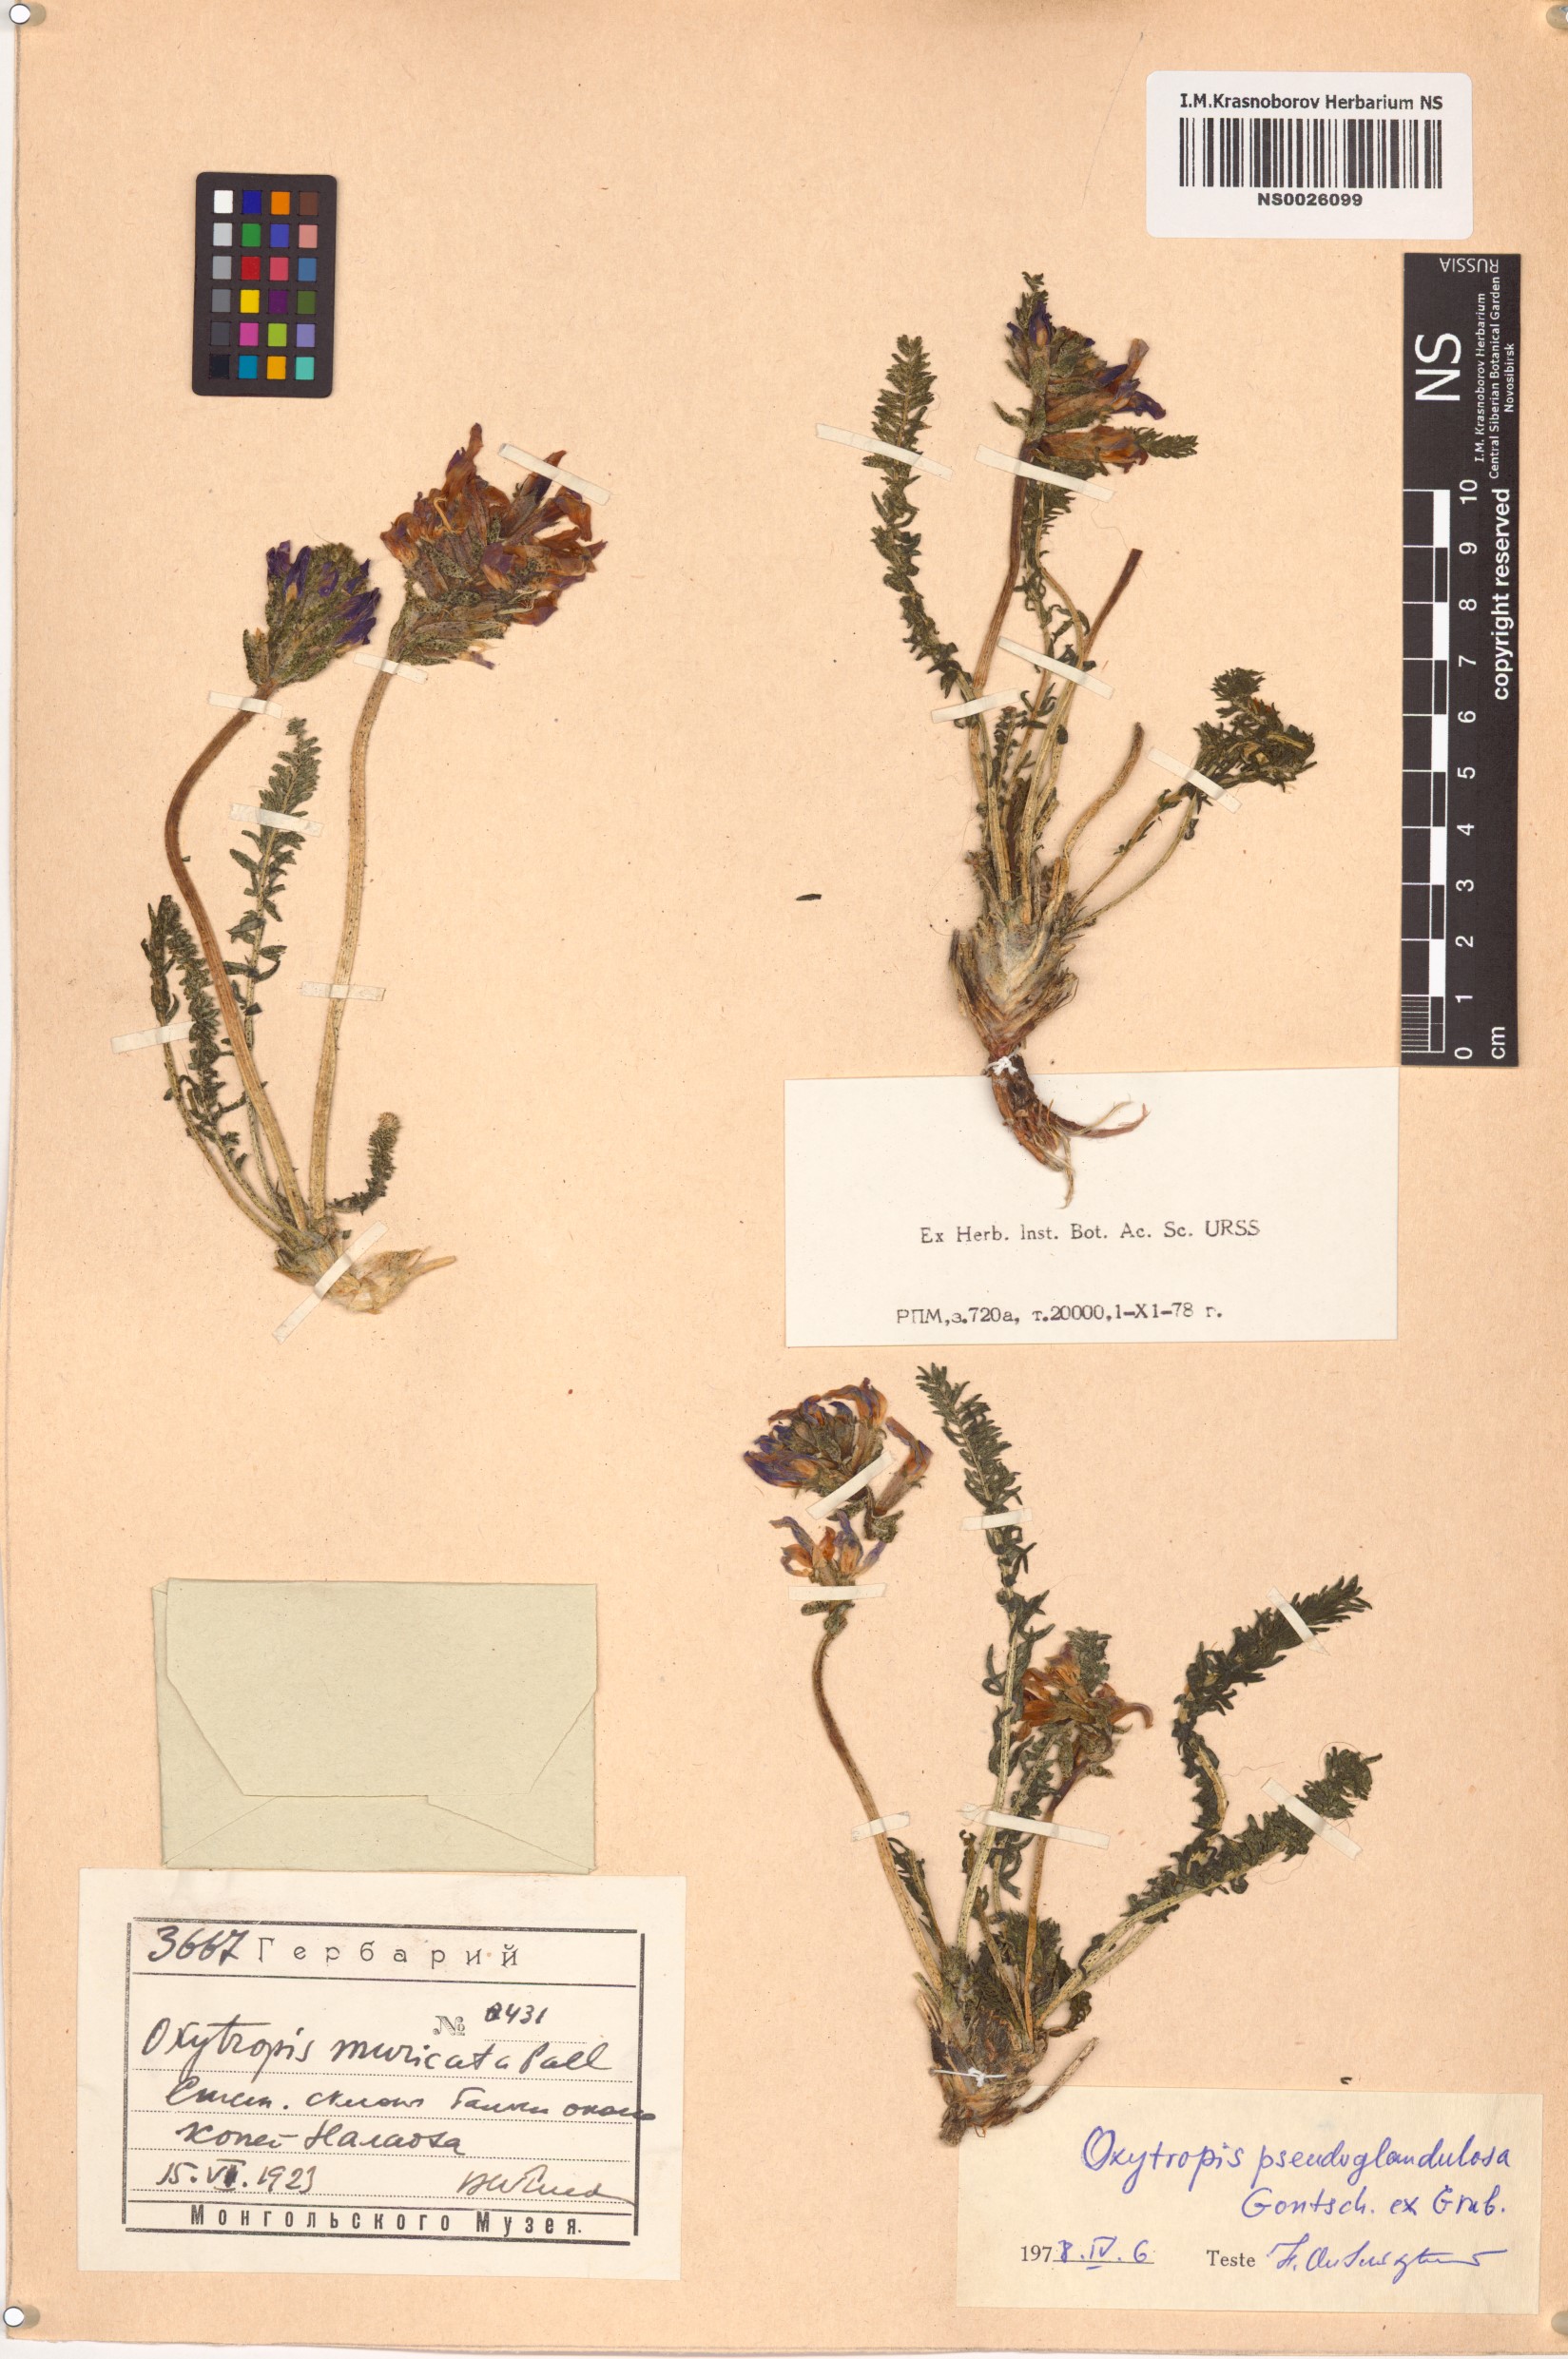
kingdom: Plantae
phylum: Tracheophyta
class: Magnoliopsida
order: Fabales
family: Fabaceae
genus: Oxytropis
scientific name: Oxytropis pseudoglandulosa
